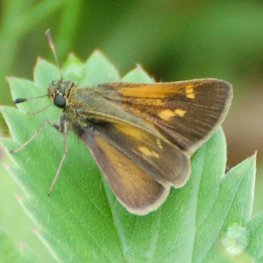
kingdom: Animalia
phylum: Arthropoda
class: Insecta
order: Lepidoptera
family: Hesperiidae
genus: Polites
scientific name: Polites themistocles
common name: Tawny-edged Skipper
